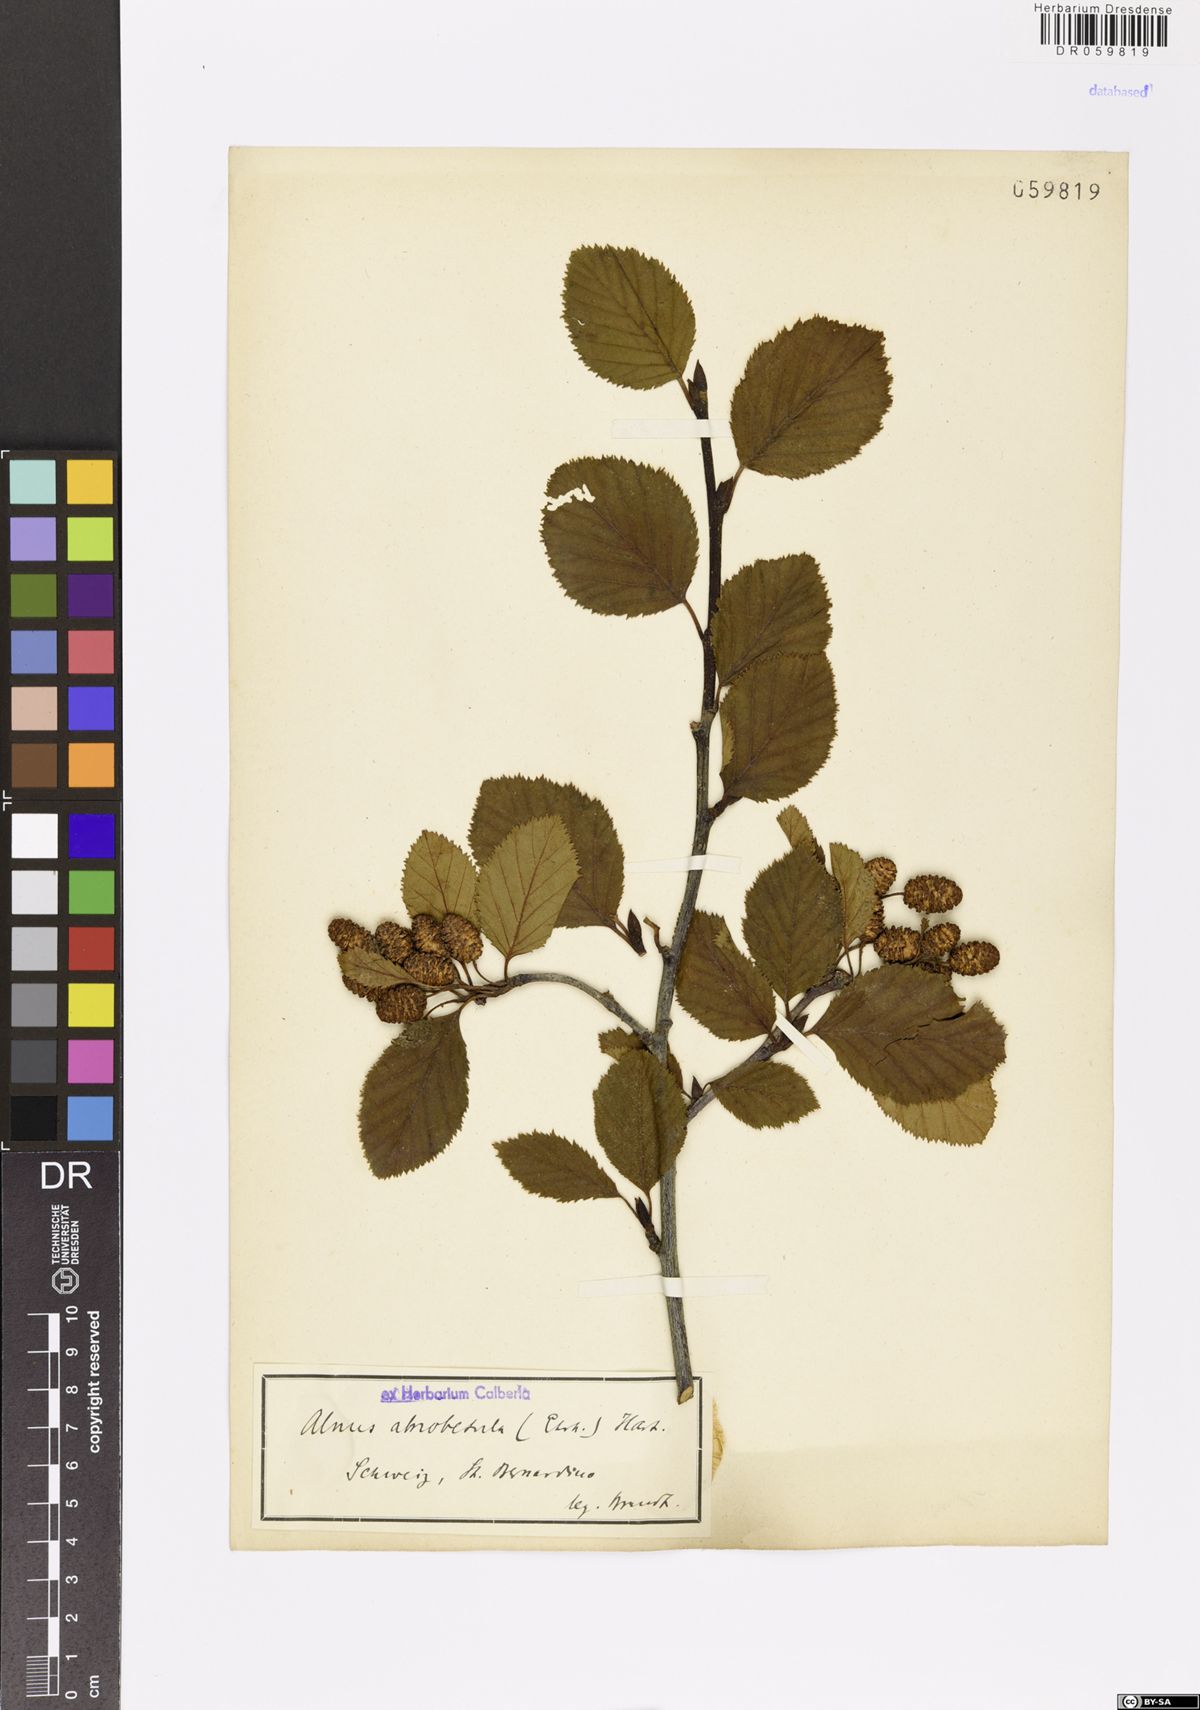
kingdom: Plantae
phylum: Tracheophyta
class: Magnoliopsida
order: Fagales
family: Betulaceae
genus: Alnus
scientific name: Alnus alnobetula
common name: Green alder
